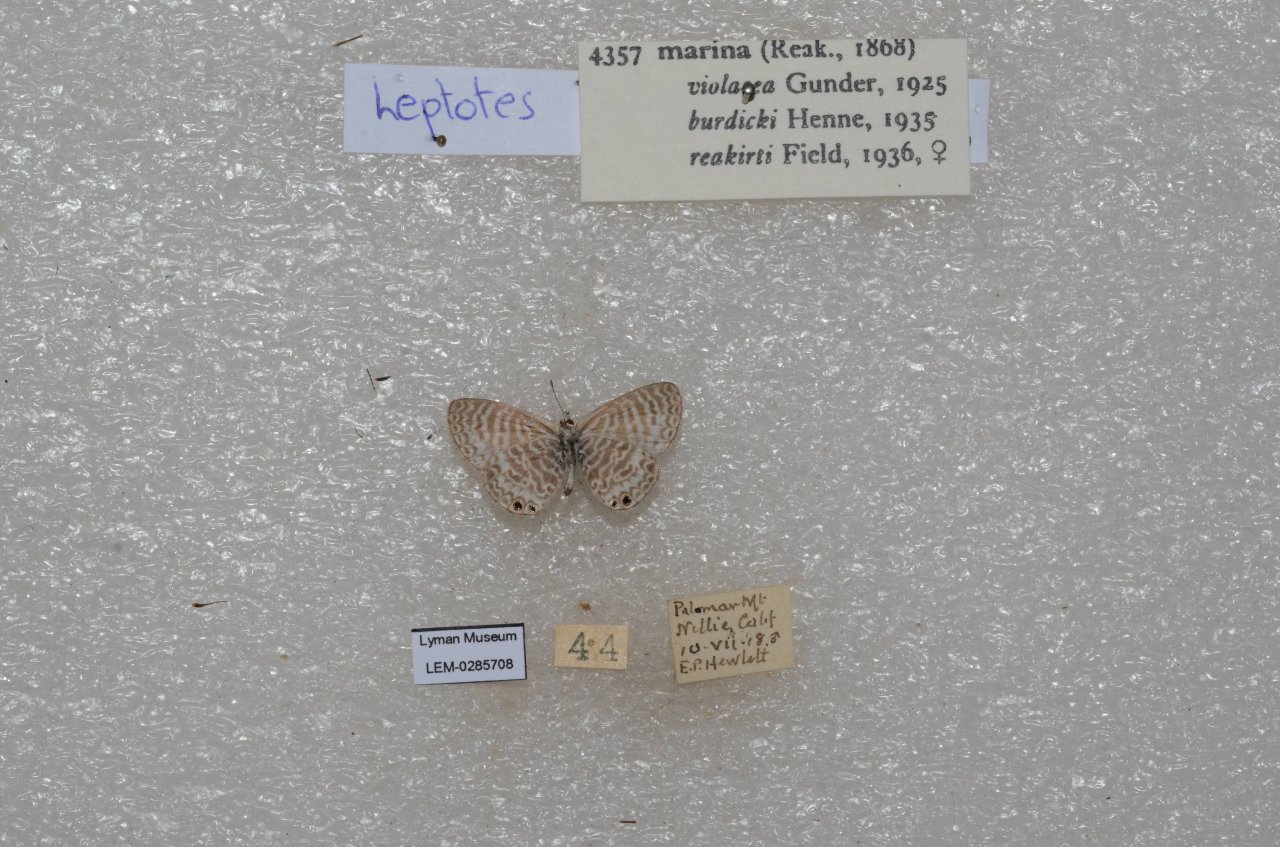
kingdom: Animalia
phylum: Arthropoda
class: Insecta
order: Lepidoptera
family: Lycaenidae
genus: Leptotes
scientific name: Leptotes marina
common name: Marine Blue
